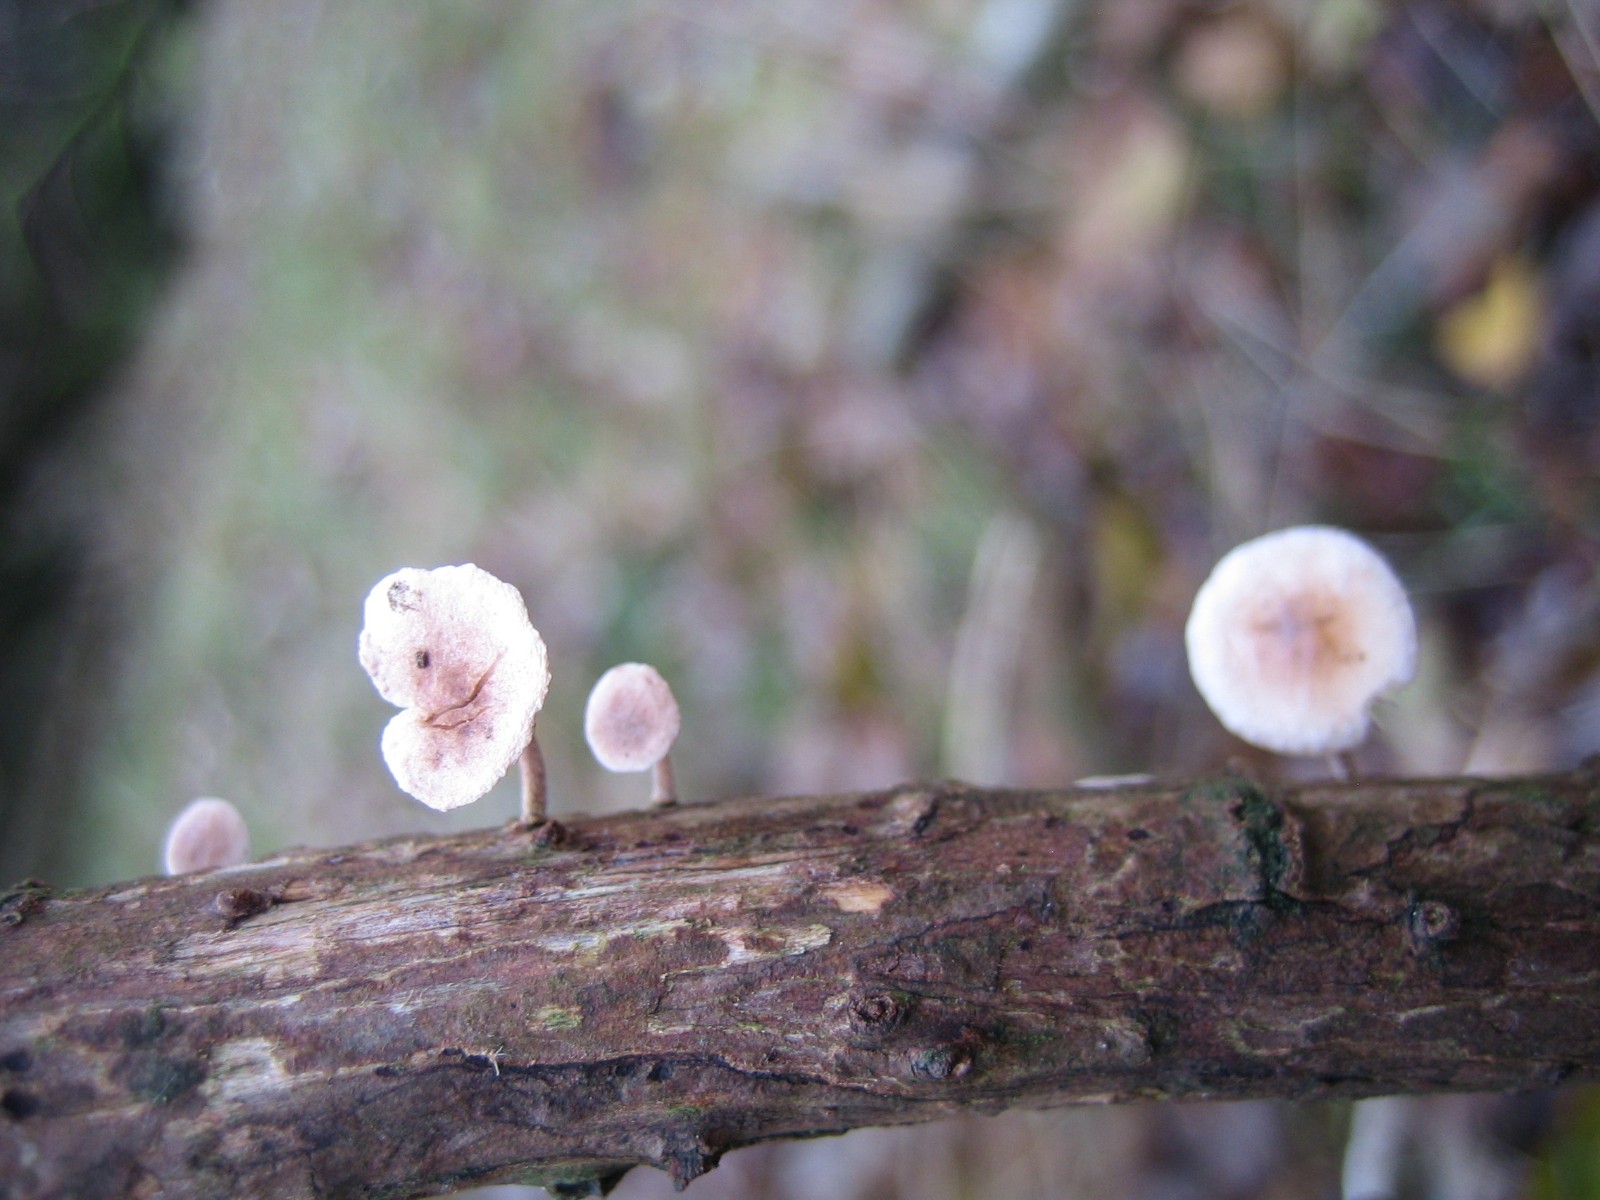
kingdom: Fungi
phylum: Basidiomycota
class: Agaricomycetes
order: Agaricales
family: Omphalotaceae
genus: Collybiopsis
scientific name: Collybiopsis ramealis
